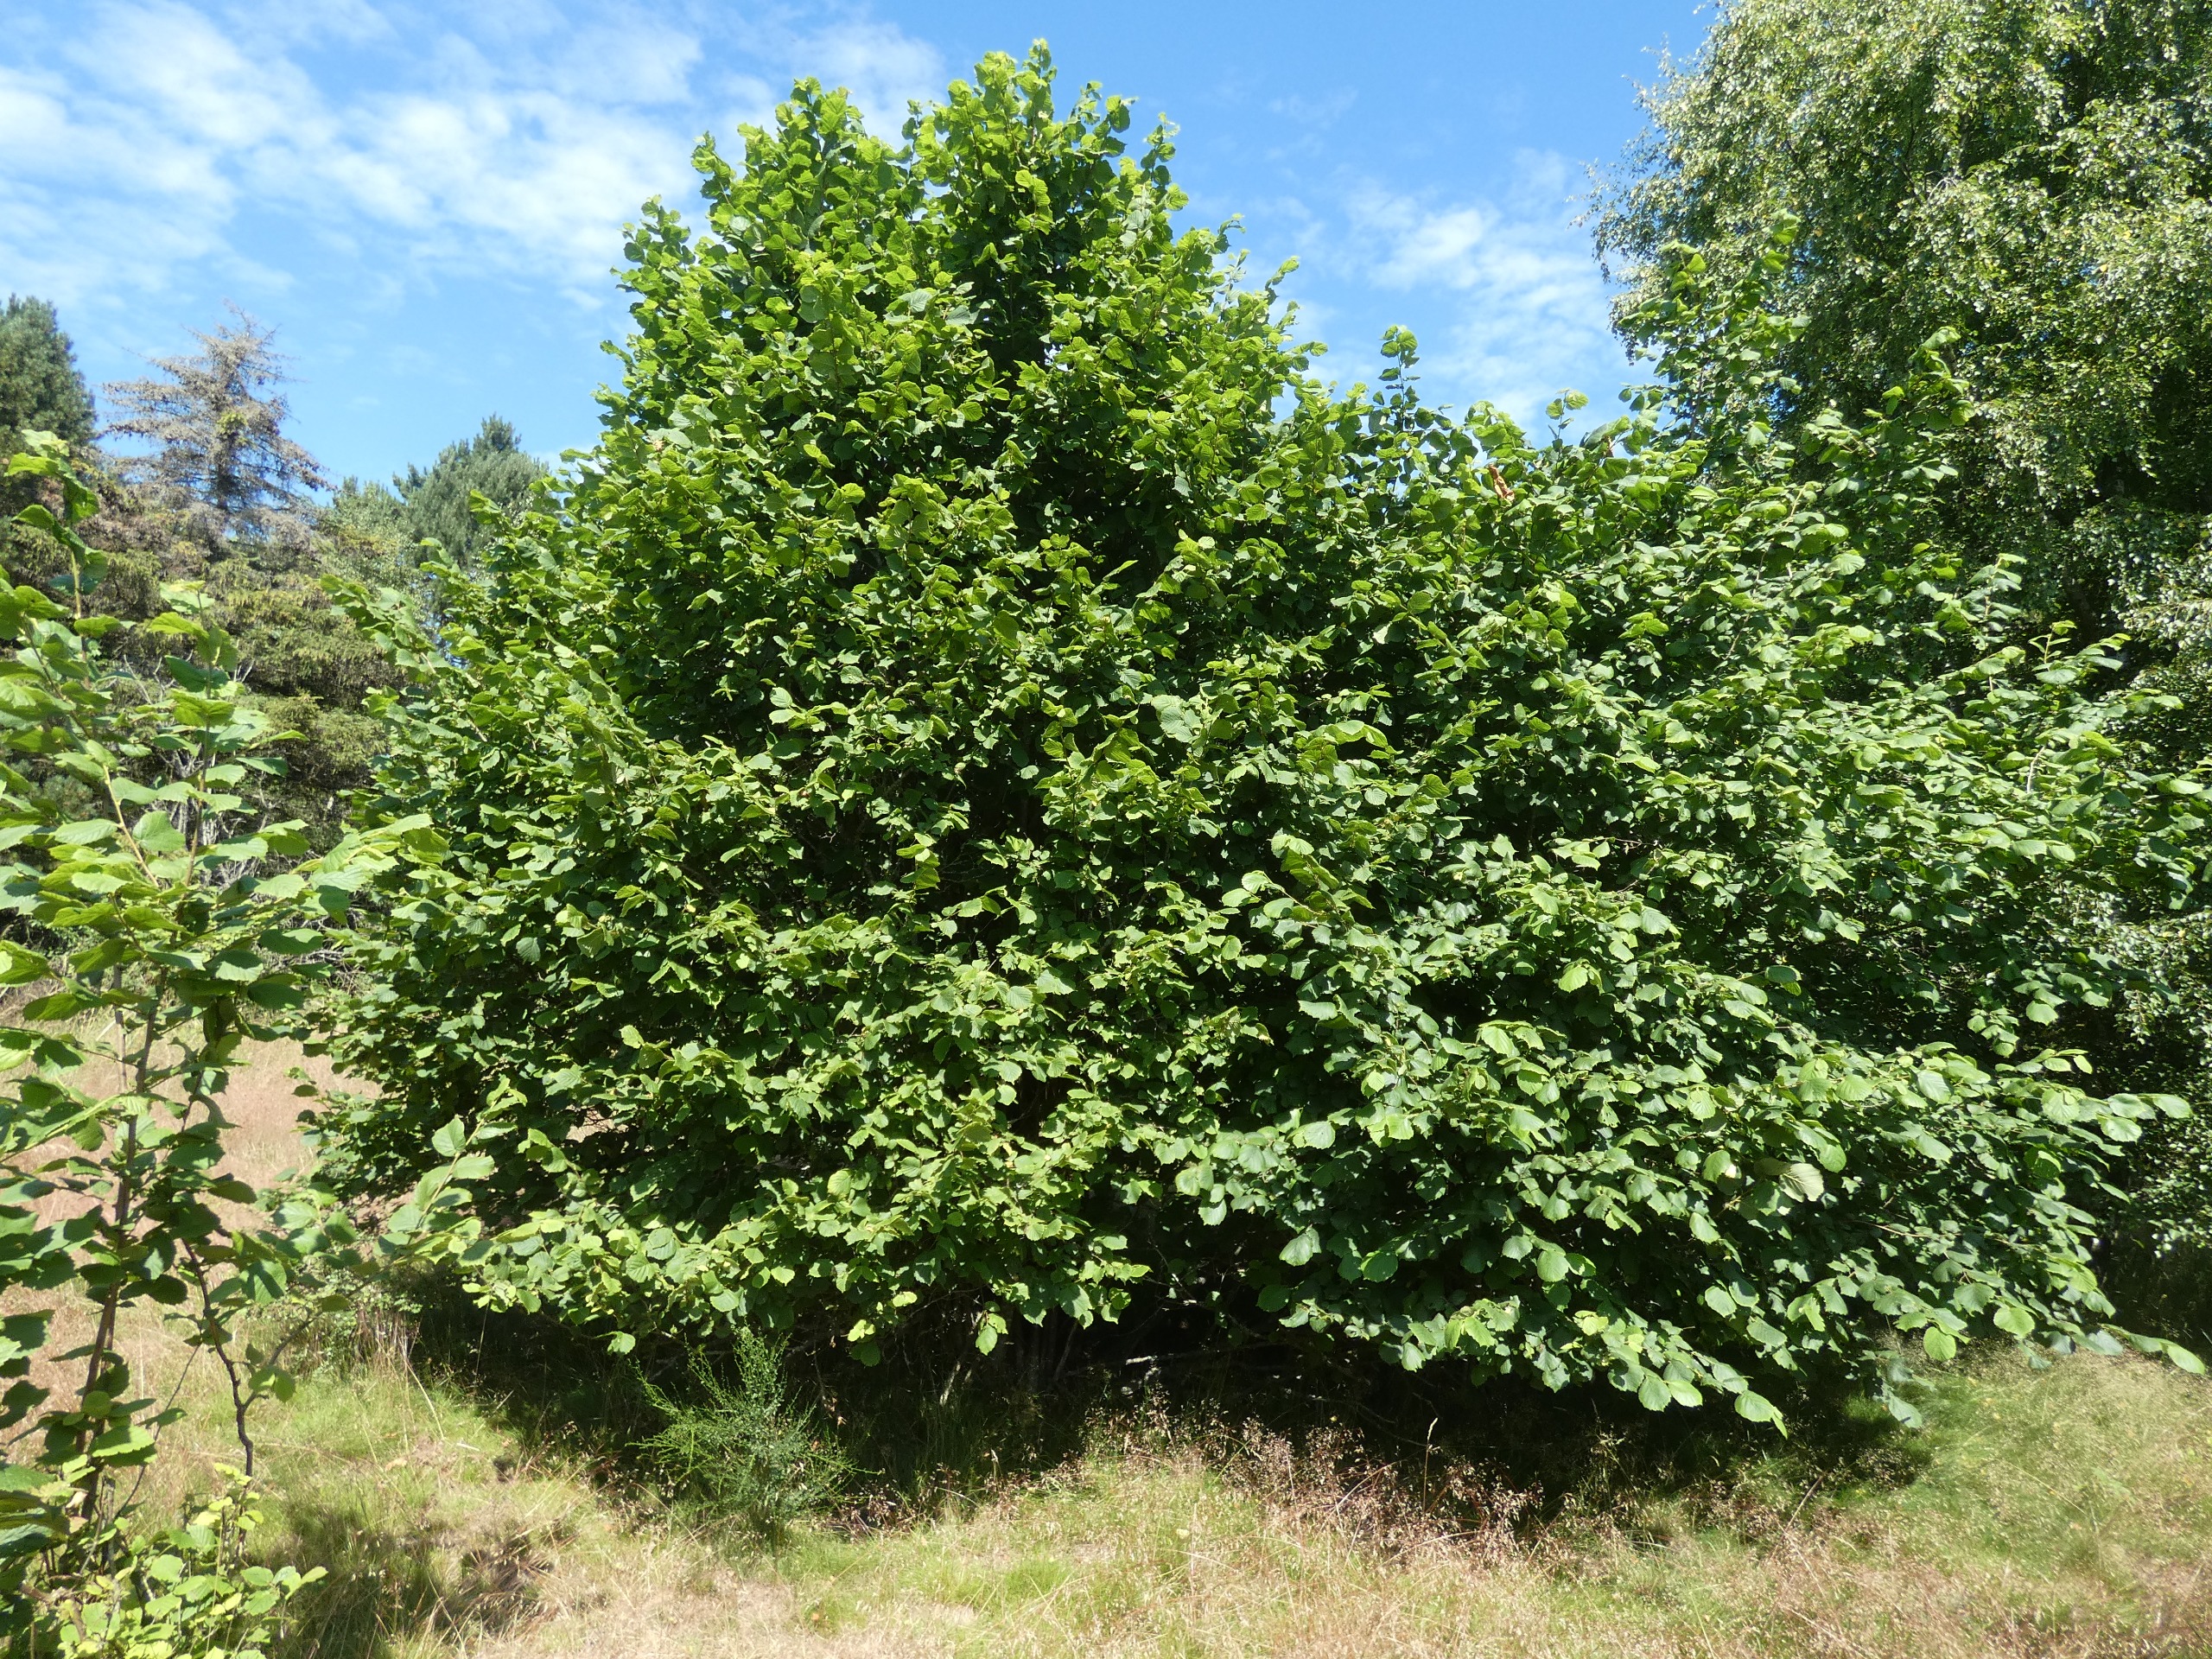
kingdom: Plantae
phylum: Tracheophyta
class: Magnoliopsida
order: Fagales
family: Betulaceae
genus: Corylus
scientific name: Corylus avellana
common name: Hassel
